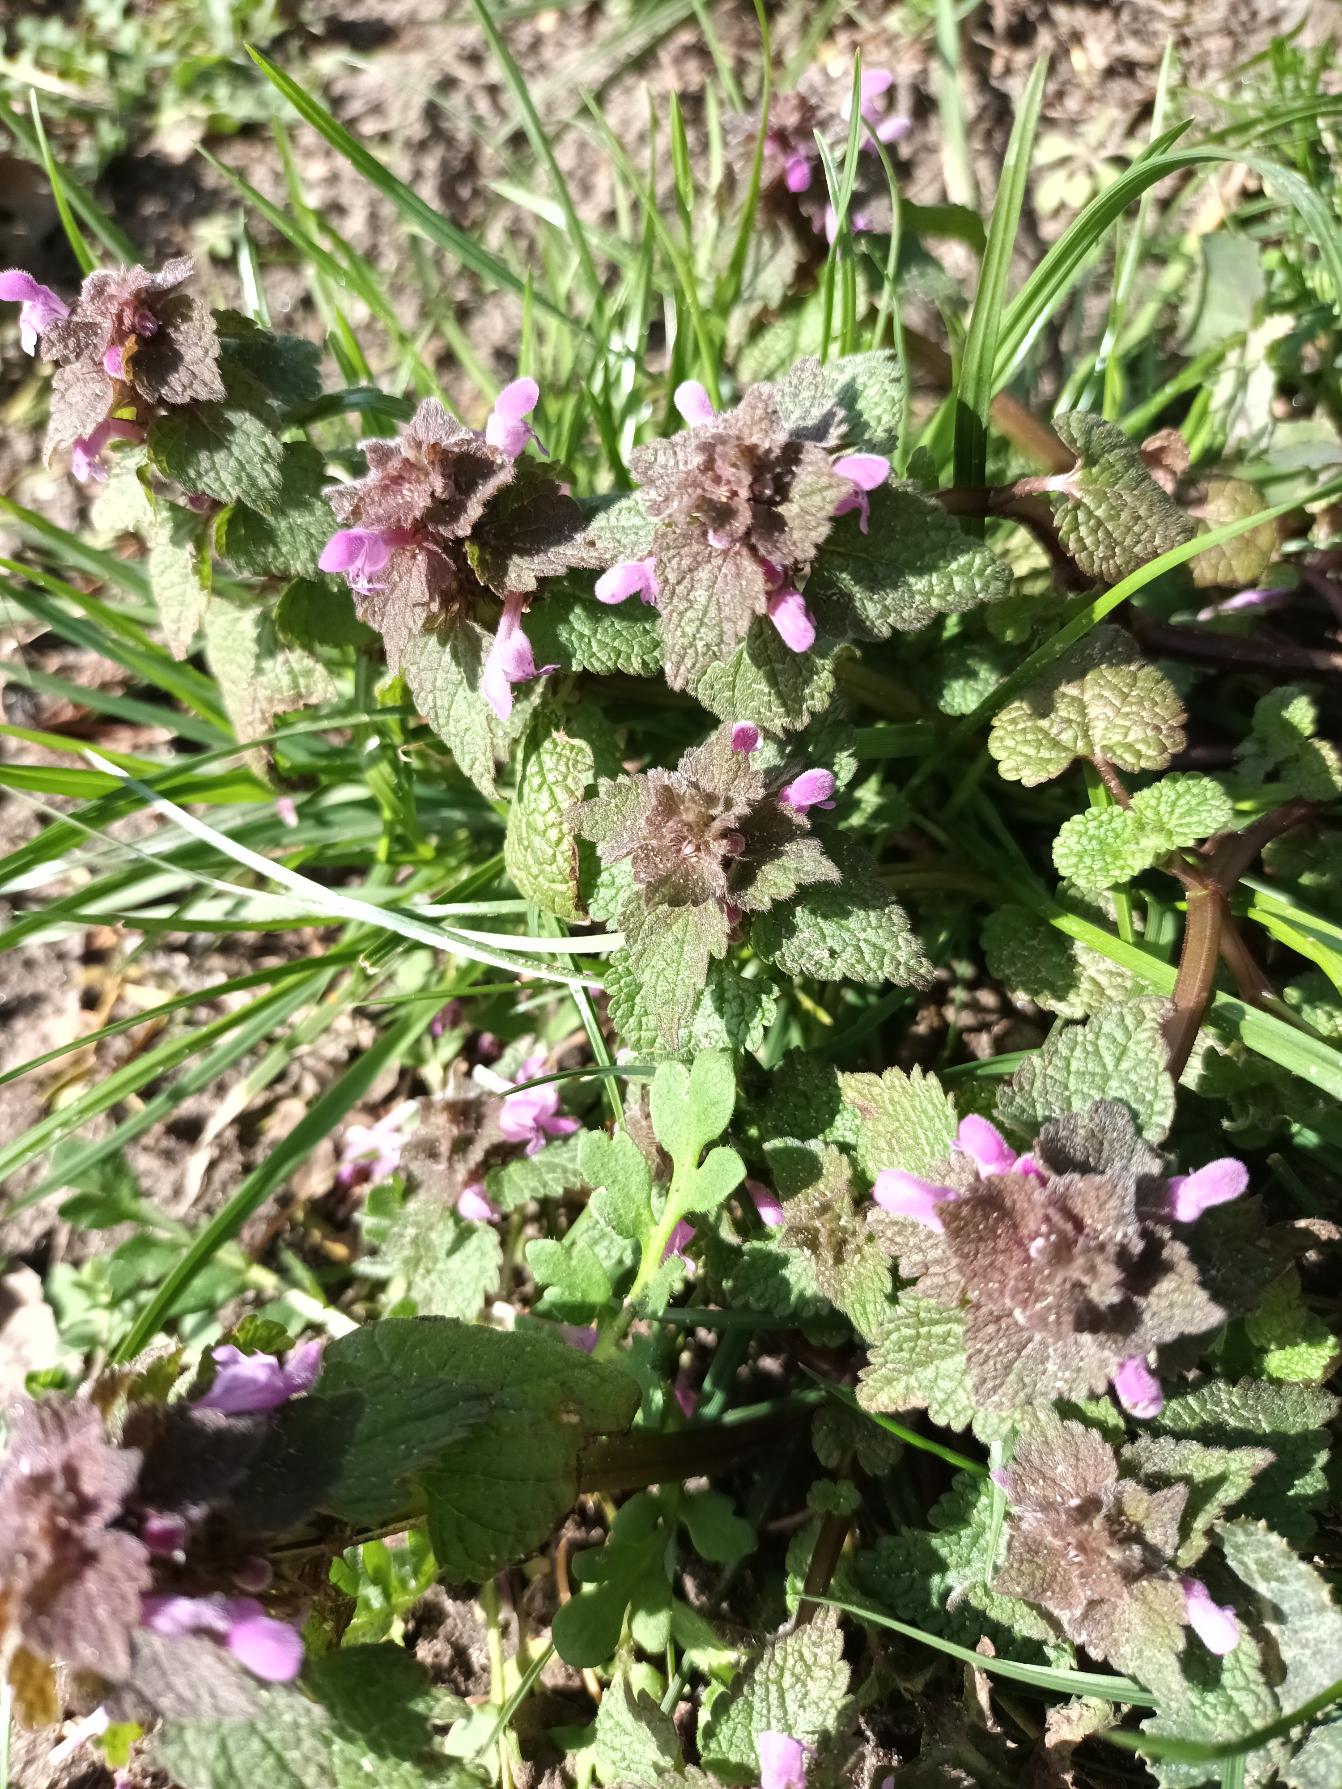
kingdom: Plantae
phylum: Tracheophyta
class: Magnoliopsida
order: Lamiales
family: Lamiaceae
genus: Lamium
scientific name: Lamium purpureum
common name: Rød tvetand
